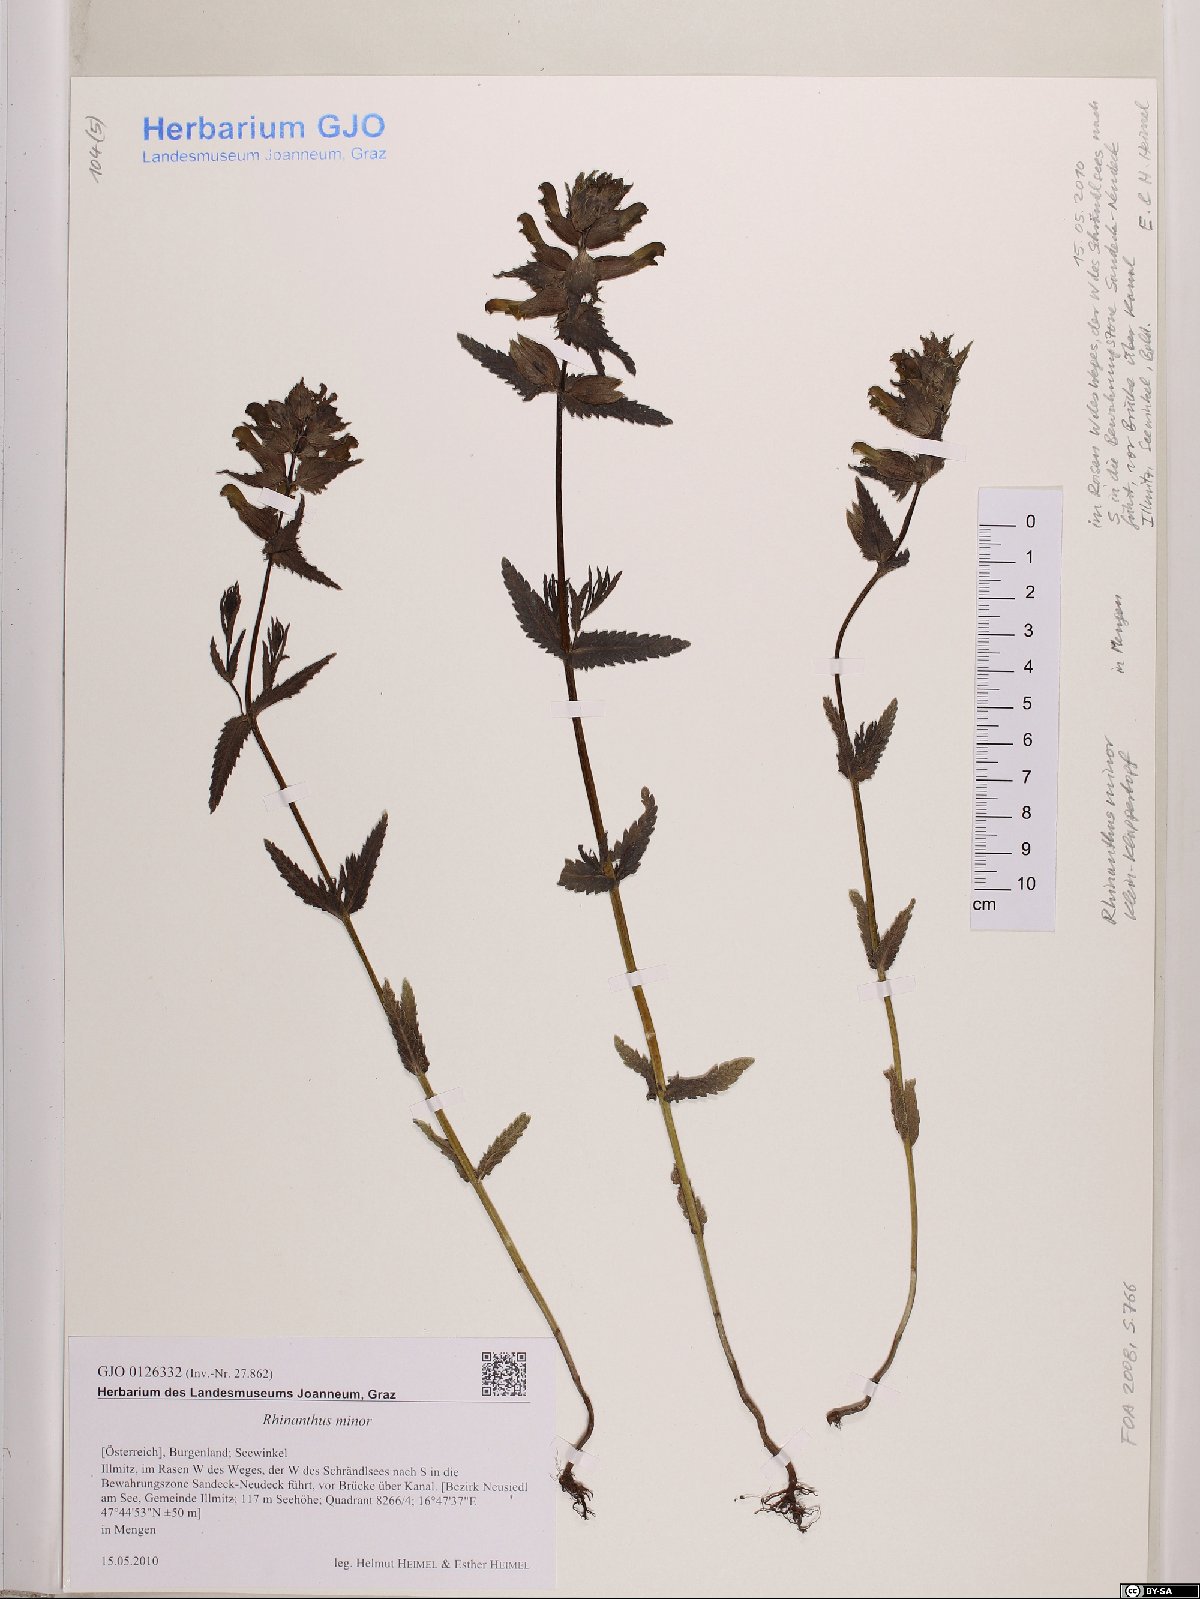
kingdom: Plantae
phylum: Tracheophyta
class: Magnoliopsida
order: Lamiales
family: Orobanchaceae
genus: Rhinanthus
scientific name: Rhinanthus minor
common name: Yellow-rattle
